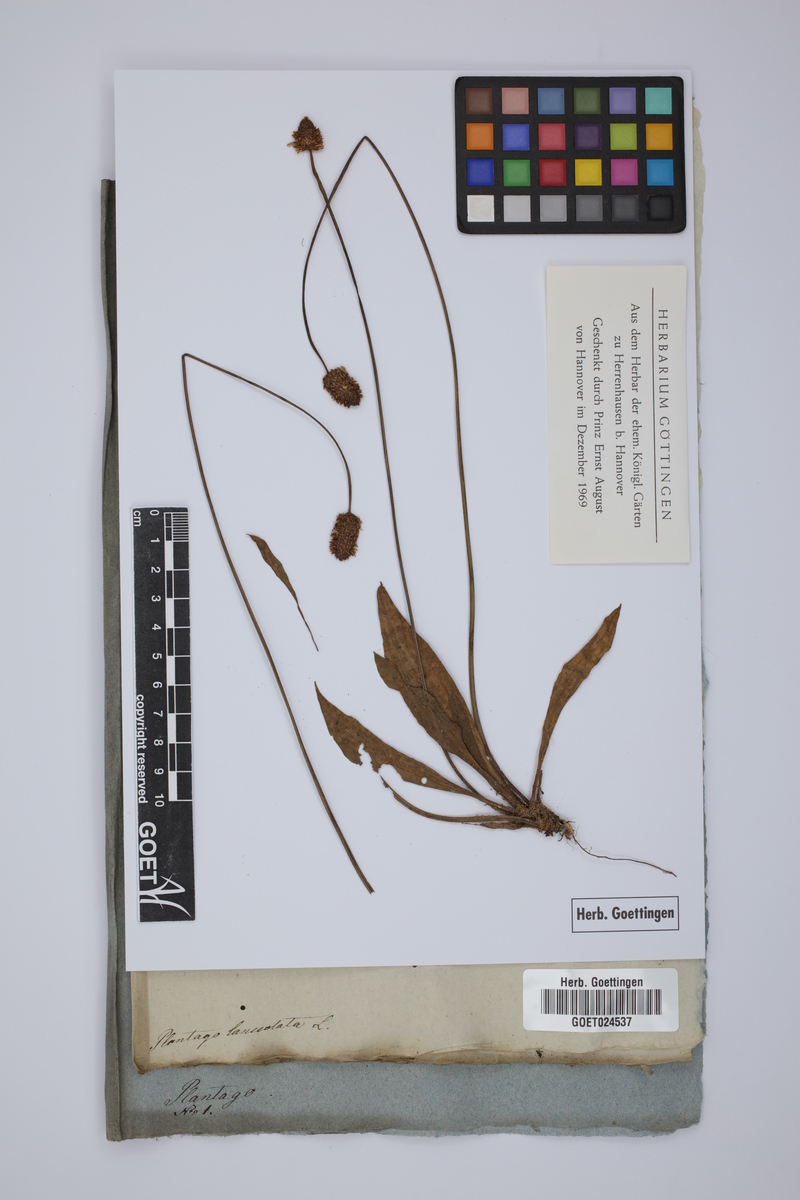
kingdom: Plantae
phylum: Tracheophyta
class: Magnoliopsida
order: Lamiales
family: Plantaginaceae
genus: Plantago
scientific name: Plantago lanceolata
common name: Ribwort plantain
